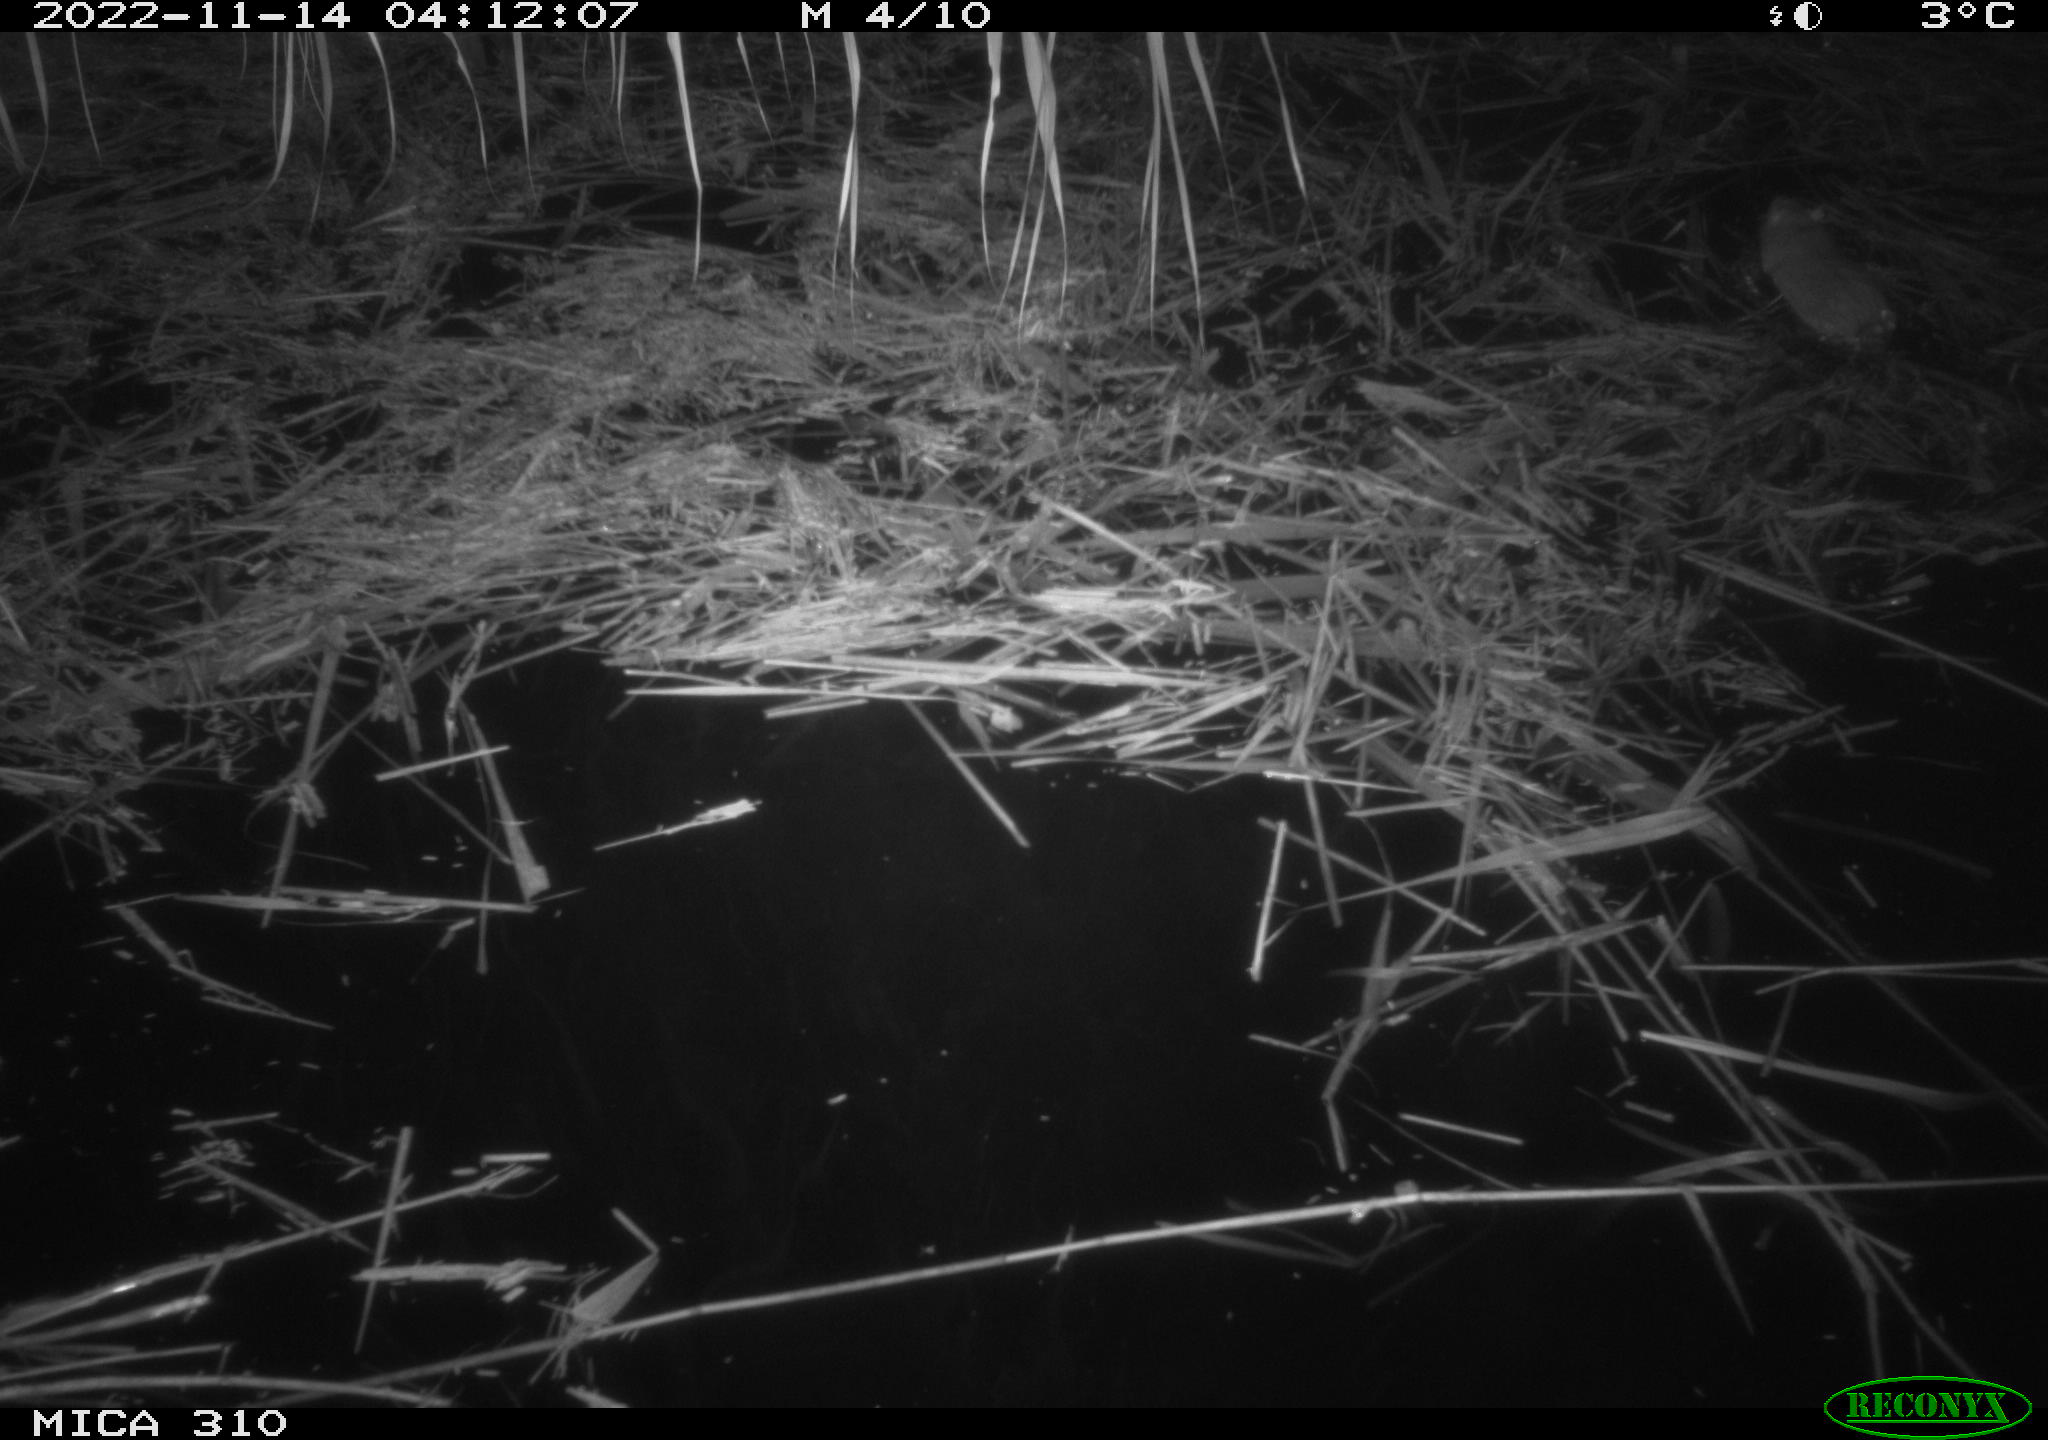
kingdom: Animalia
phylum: Chordata
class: Mammalia
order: Rodentia
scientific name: Rodentia
